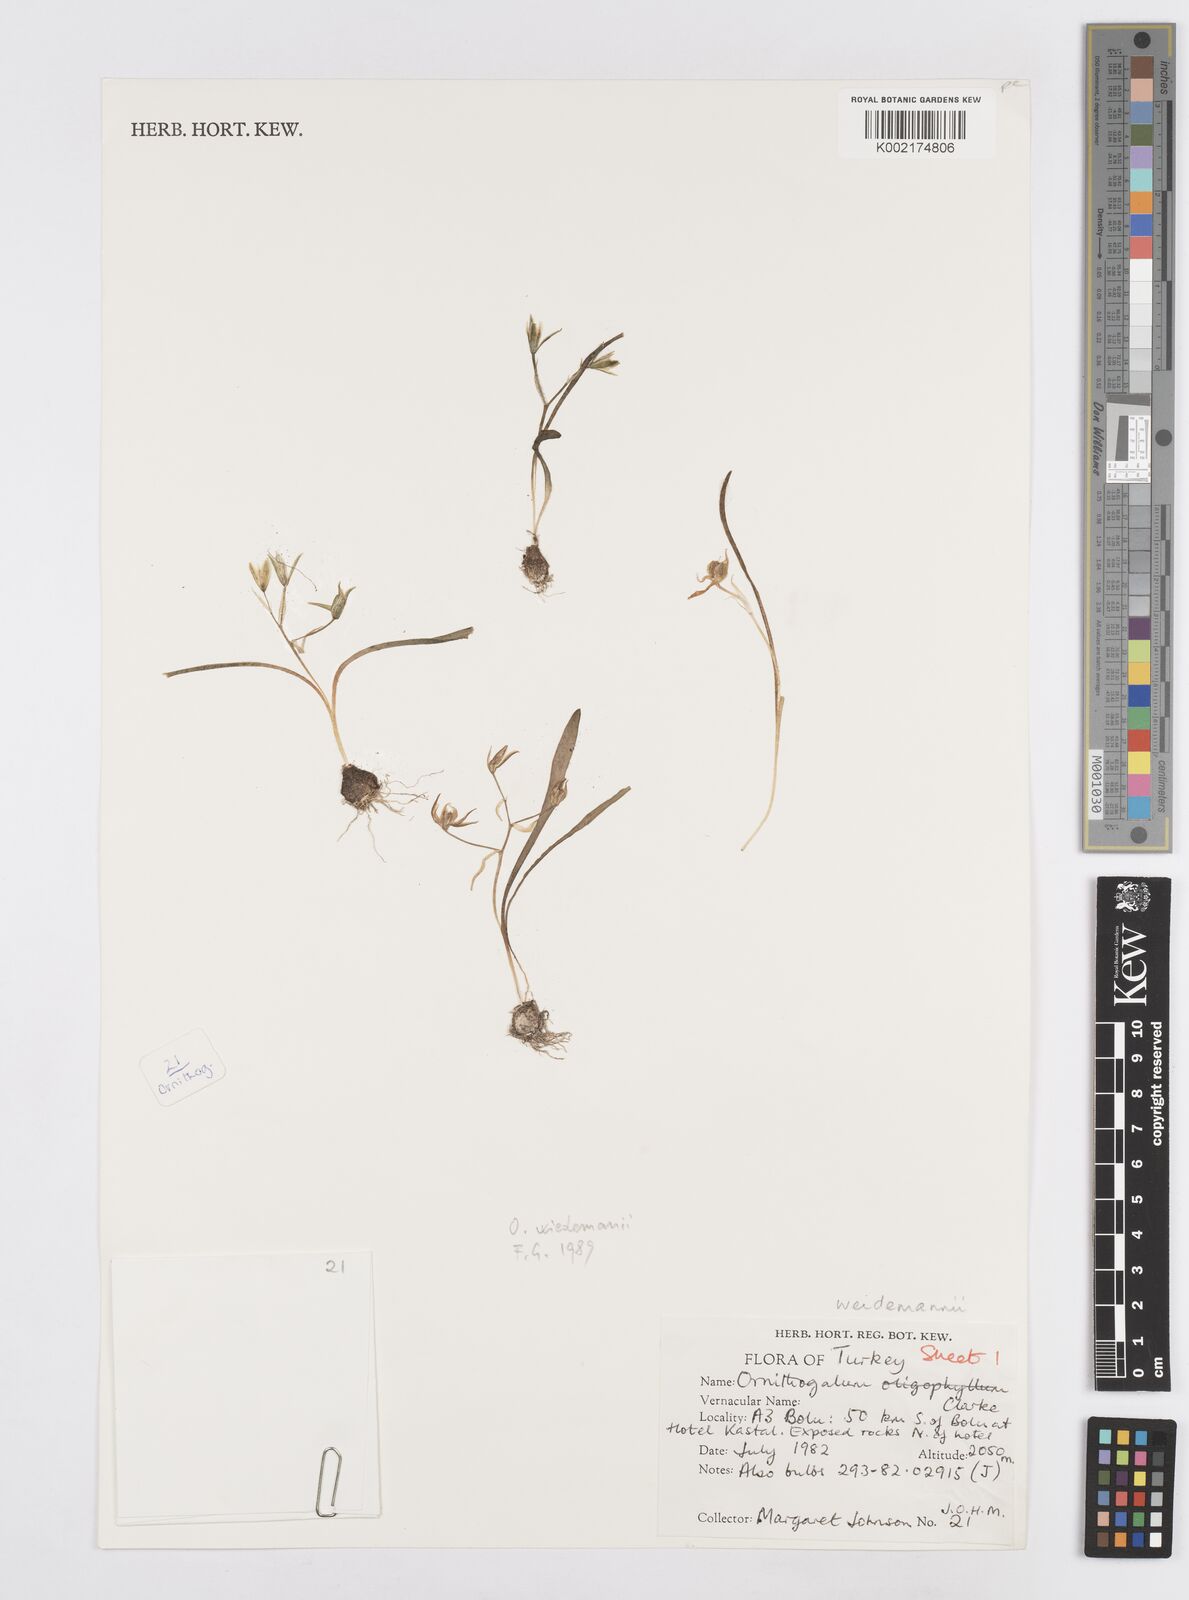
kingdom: Plantae
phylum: Tracheophyta
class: Liliopsida
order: Asparagales
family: Asparagaceae
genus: Ornithogalum
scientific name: Ornithogalum wiedemannii
